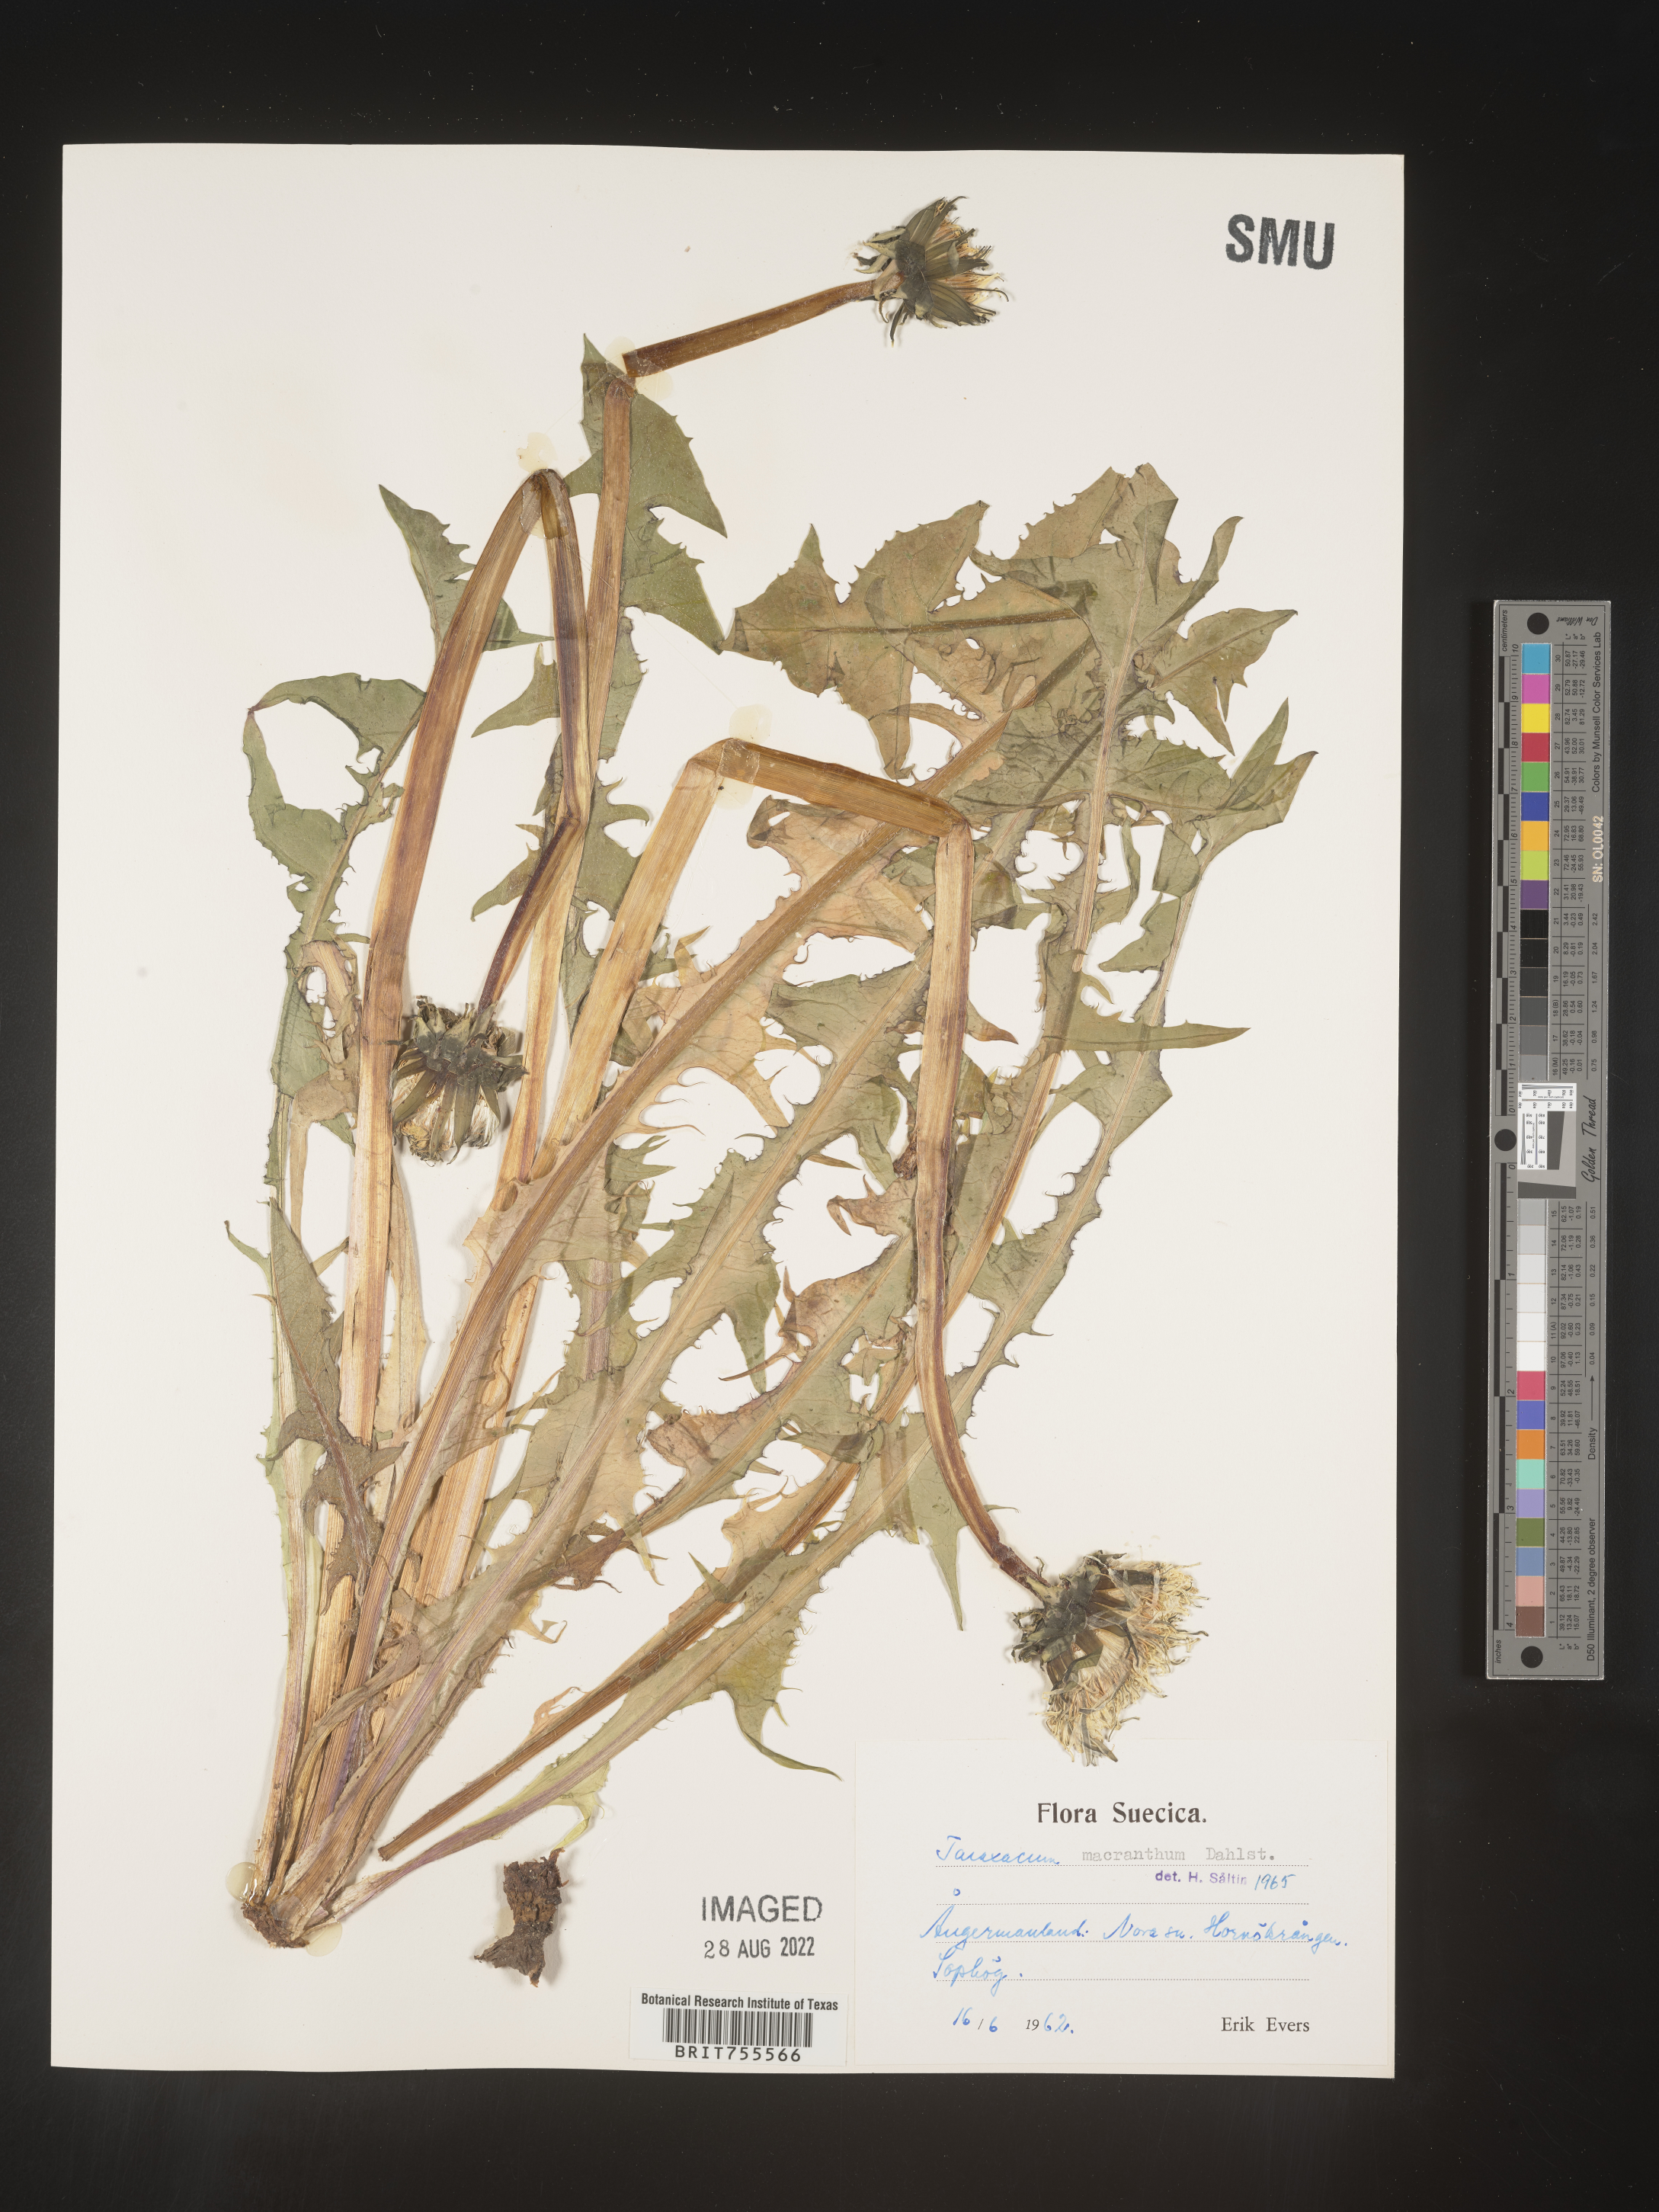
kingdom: Plantae
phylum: Tracheophyta
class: Magnoliopsida
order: Asterales
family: Asteraceae
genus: Taraxacum
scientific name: Taraxacum
